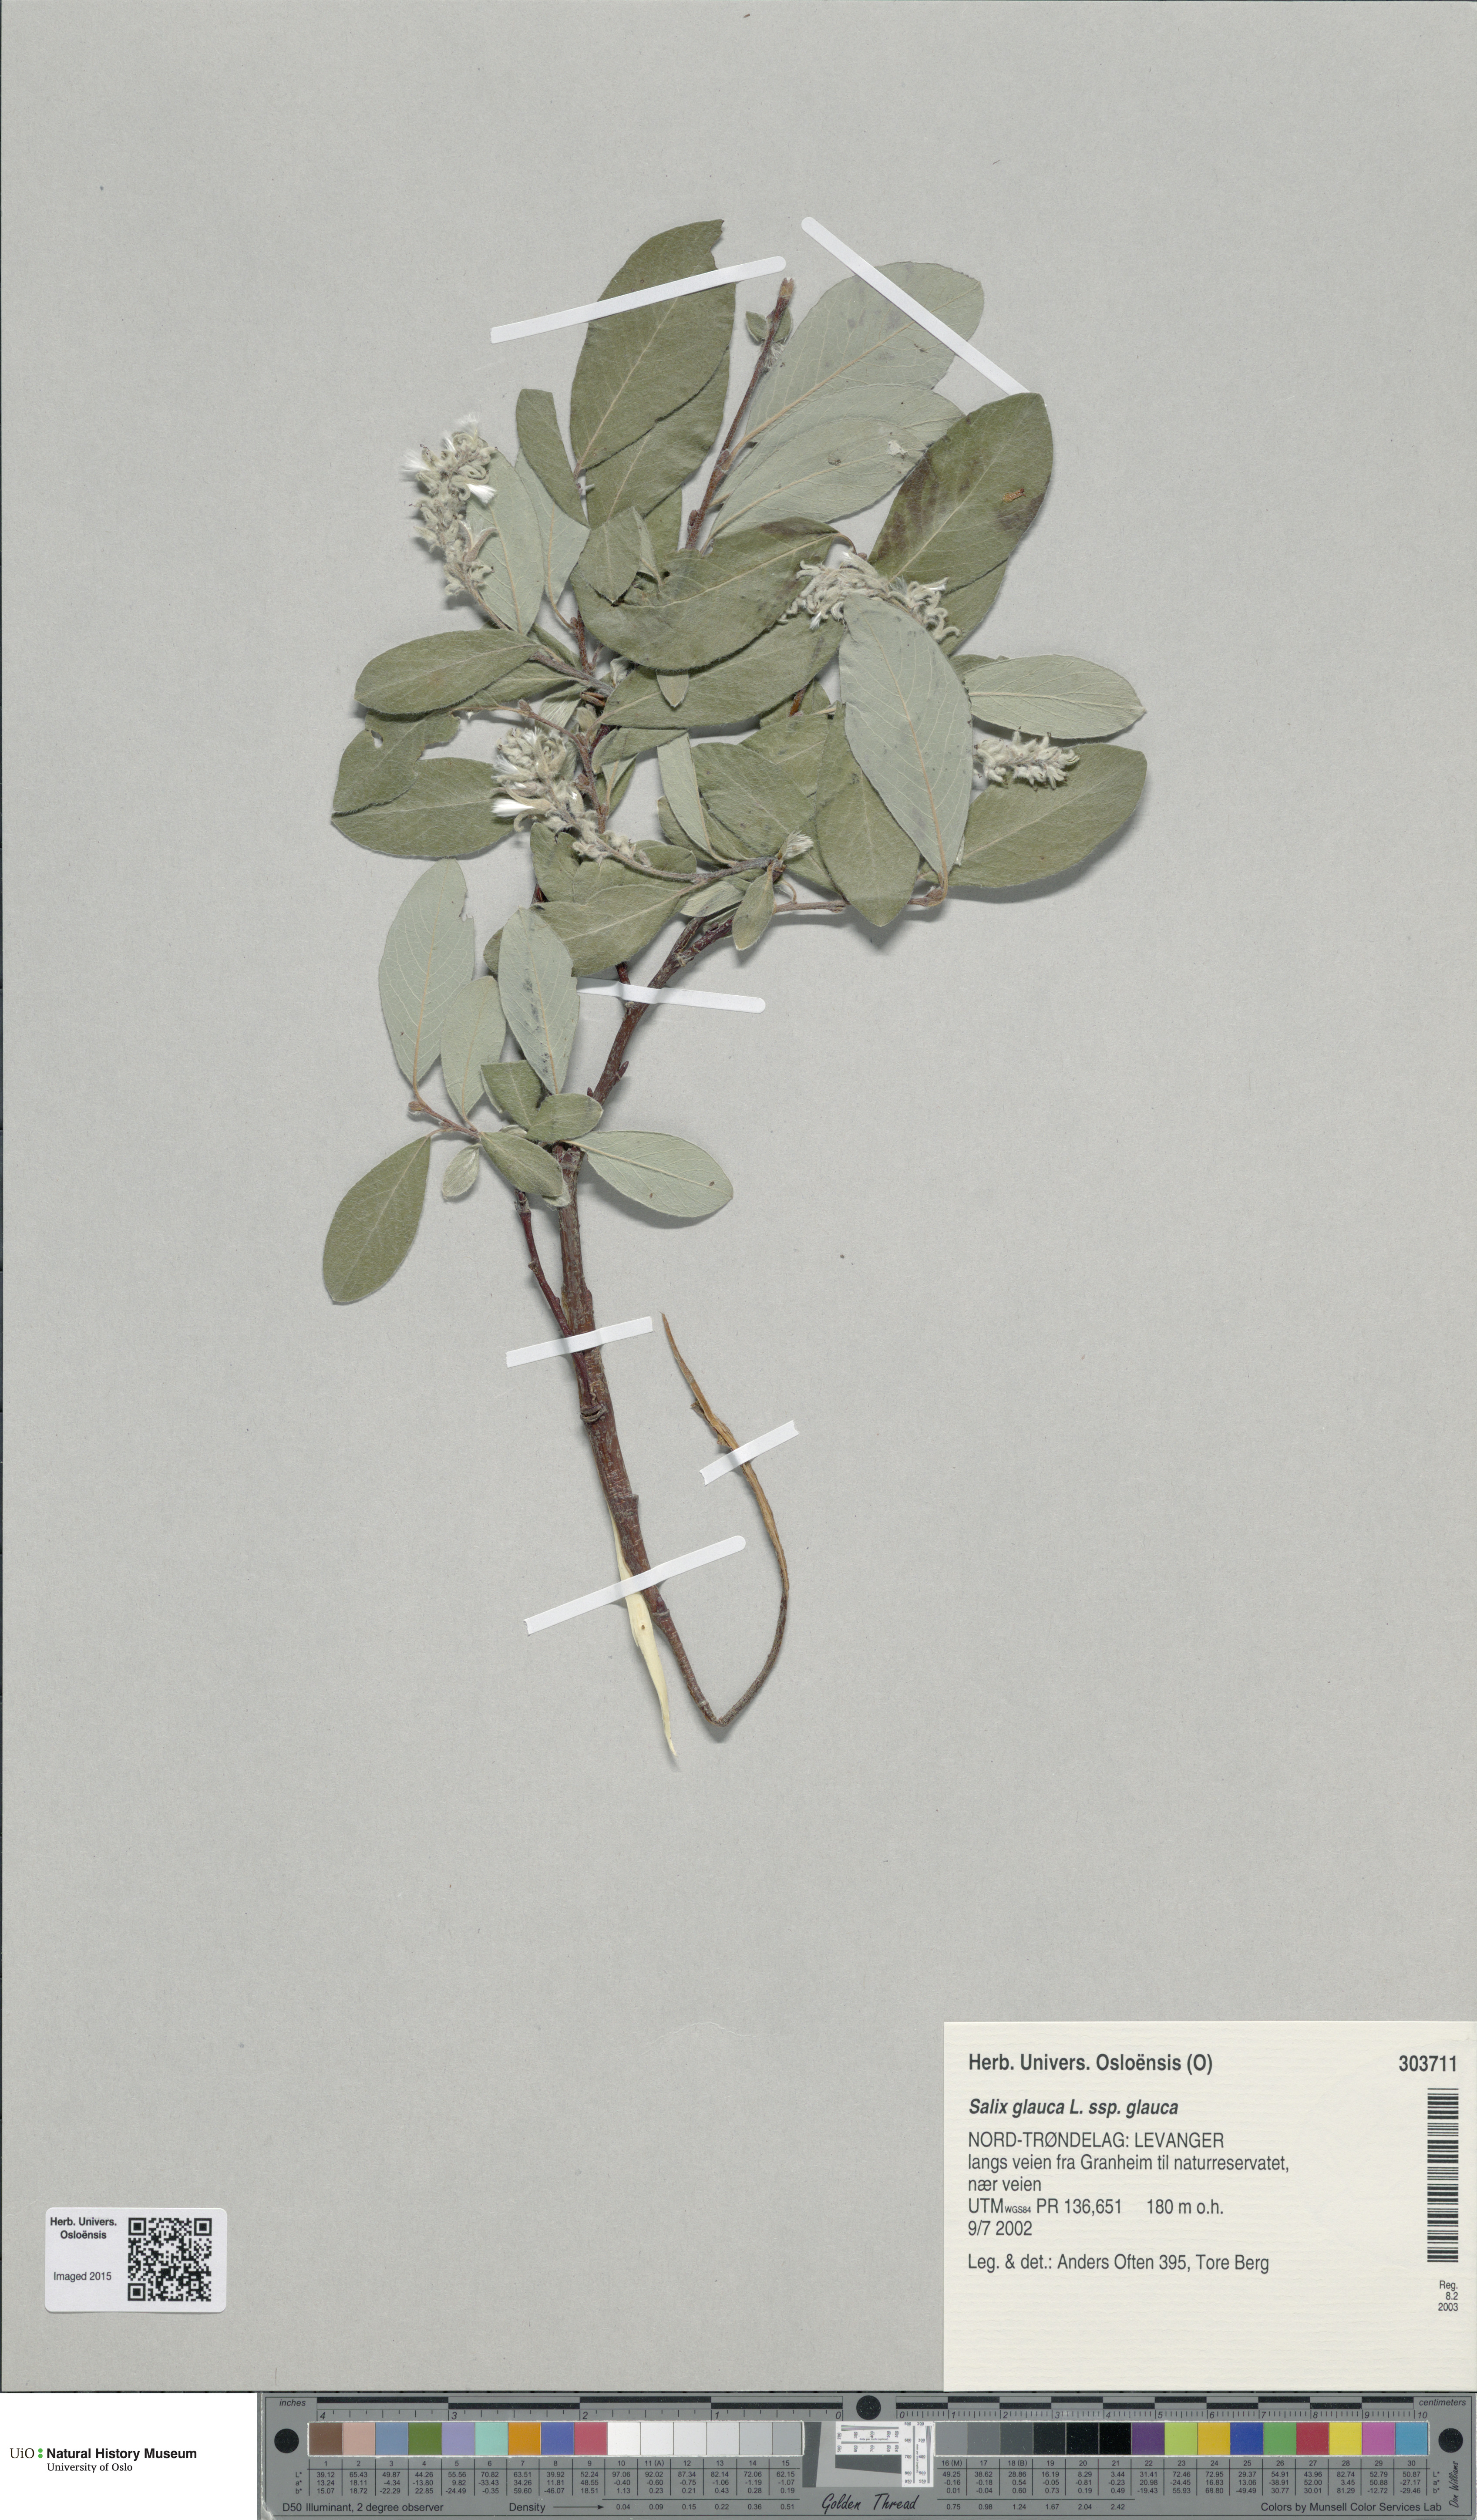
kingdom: Plantae
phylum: Tracheophyta
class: Magnoliopsida
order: Malpighiales
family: Salicaceae
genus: Salix
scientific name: Salix glauca
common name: Glaucous willow
